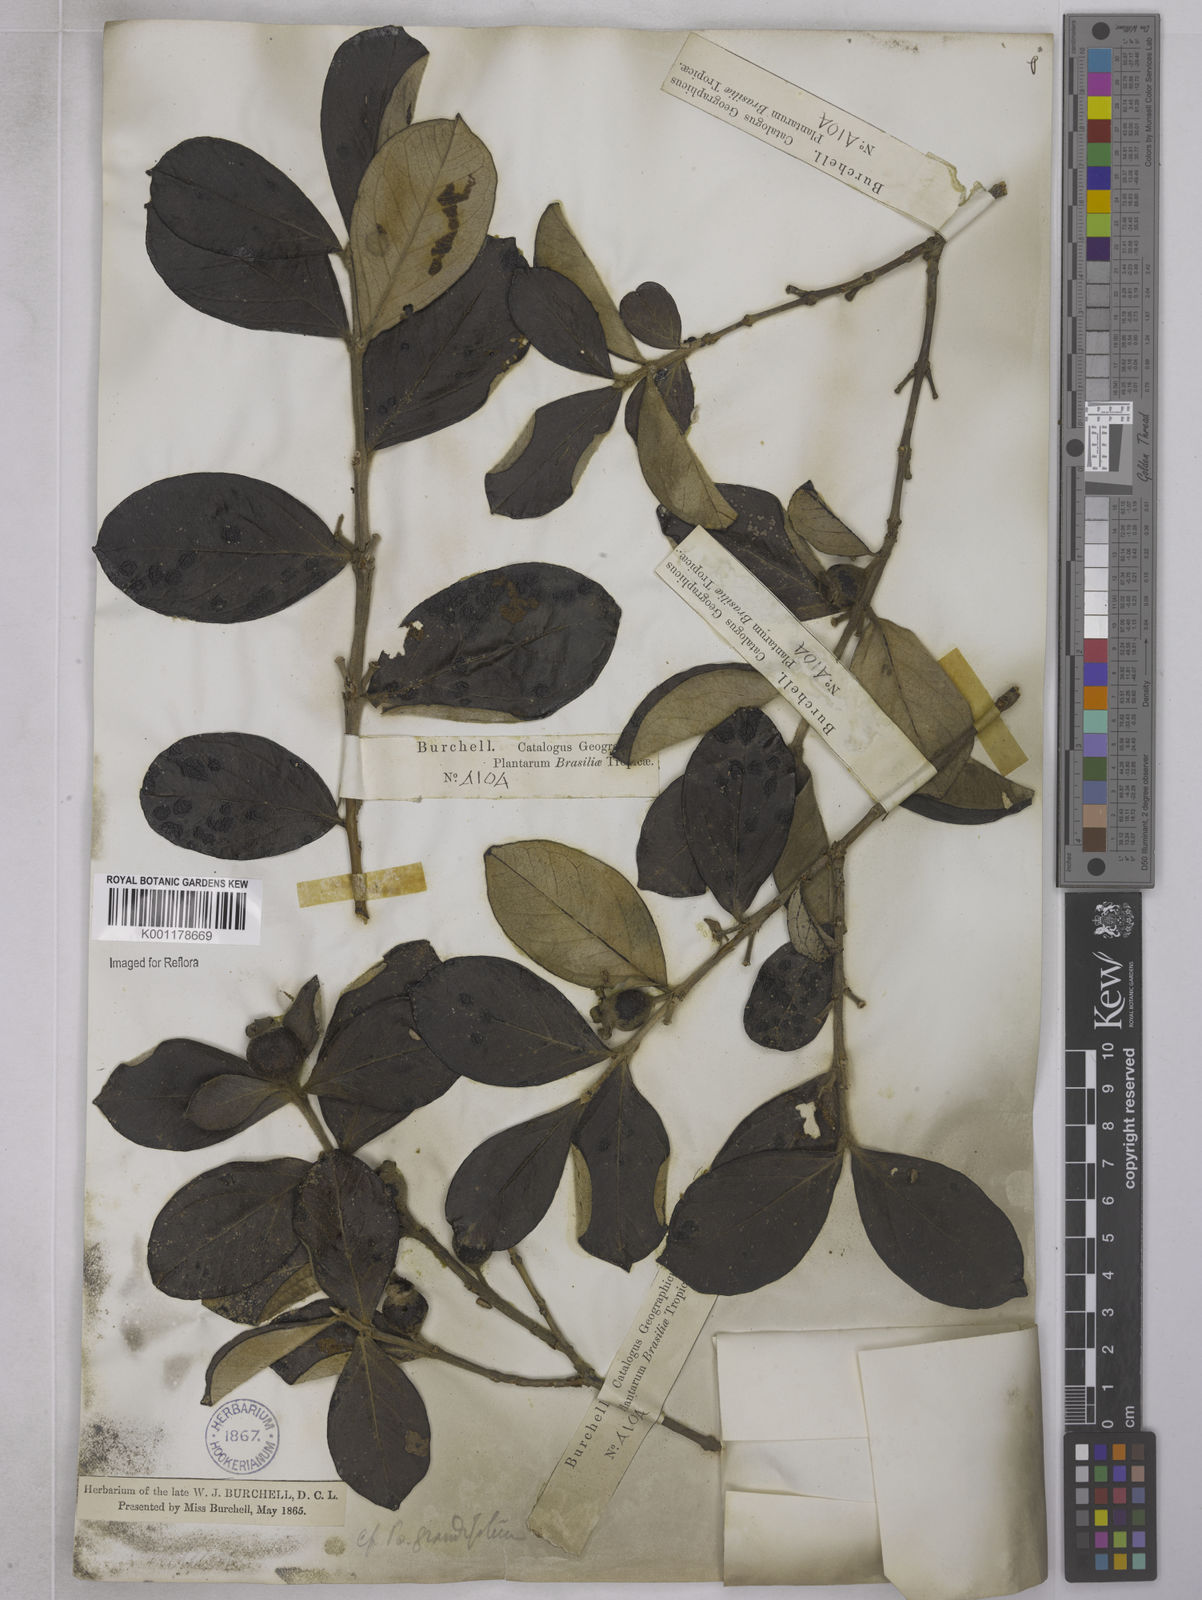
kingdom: Plantae
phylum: Tracheophyta
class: Magnoliopsida
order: Myrtales
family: Myrtaceae
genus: Psidium
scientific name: Psidium grandifolium
